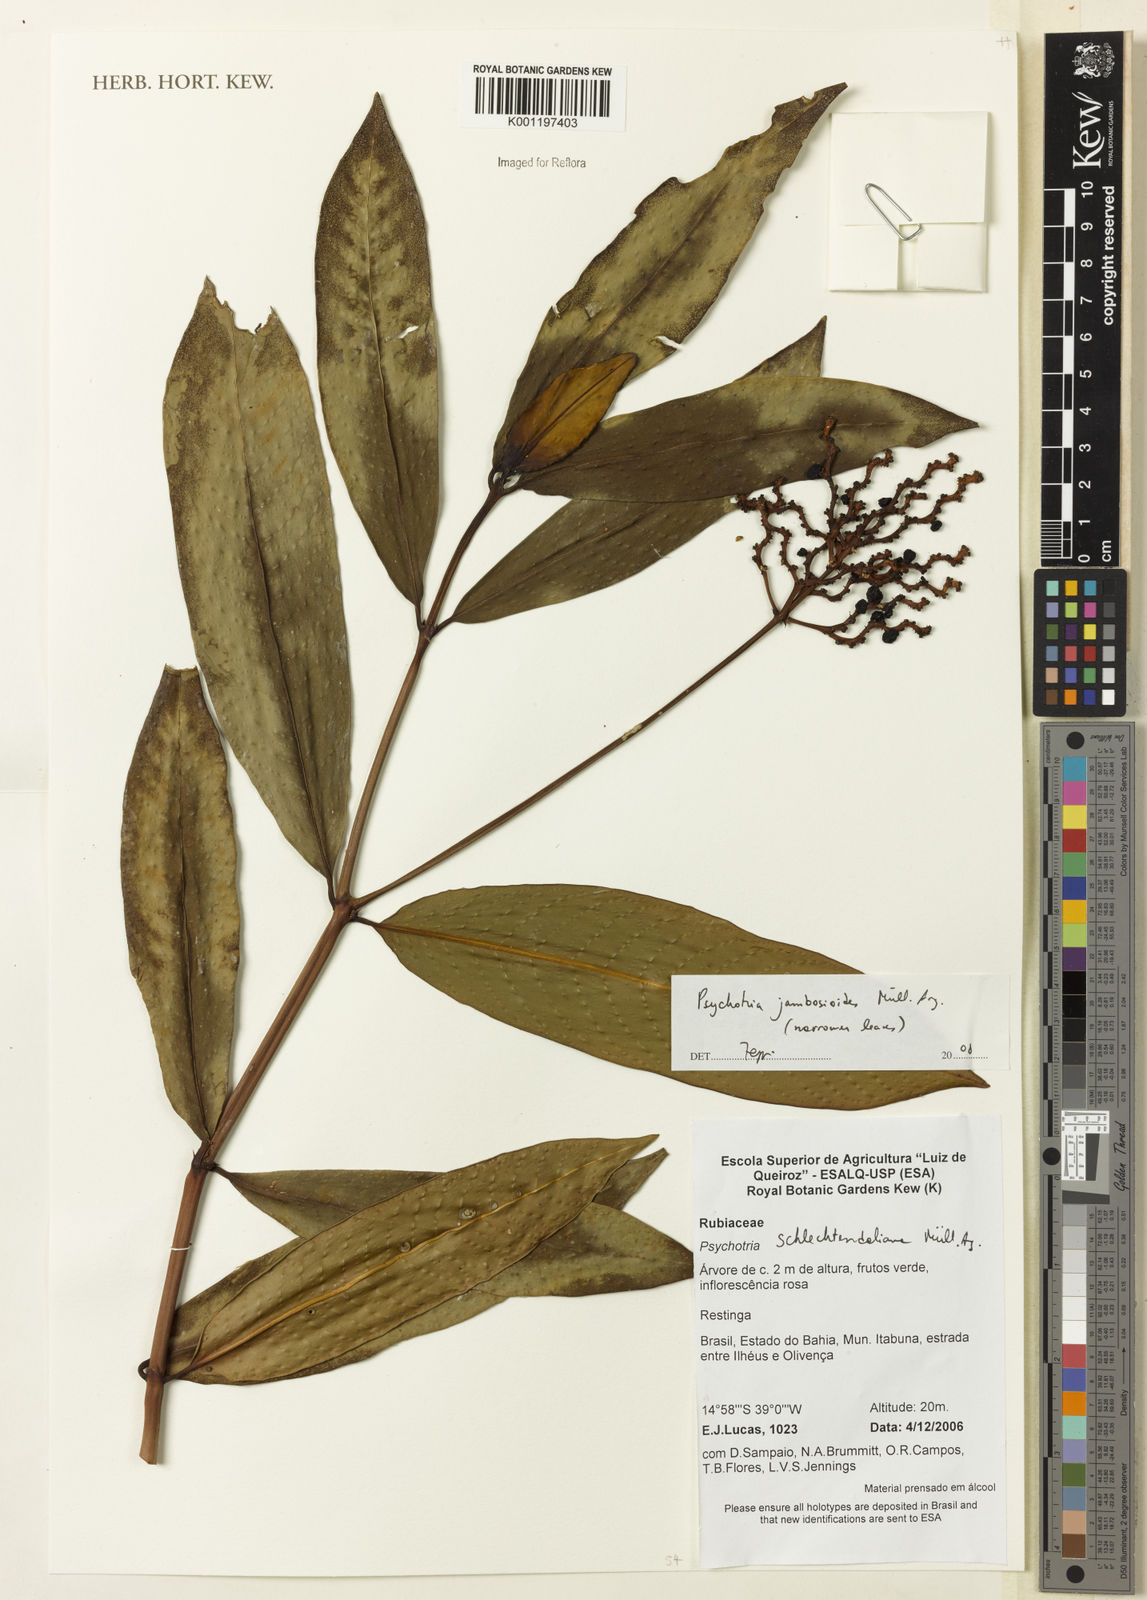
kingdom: Plantae
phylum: Tracheophyta
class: Magnoliopsida
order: Gentianales
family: Rubiaceae
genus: Palicourea
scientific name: Palicourea jambosioides
